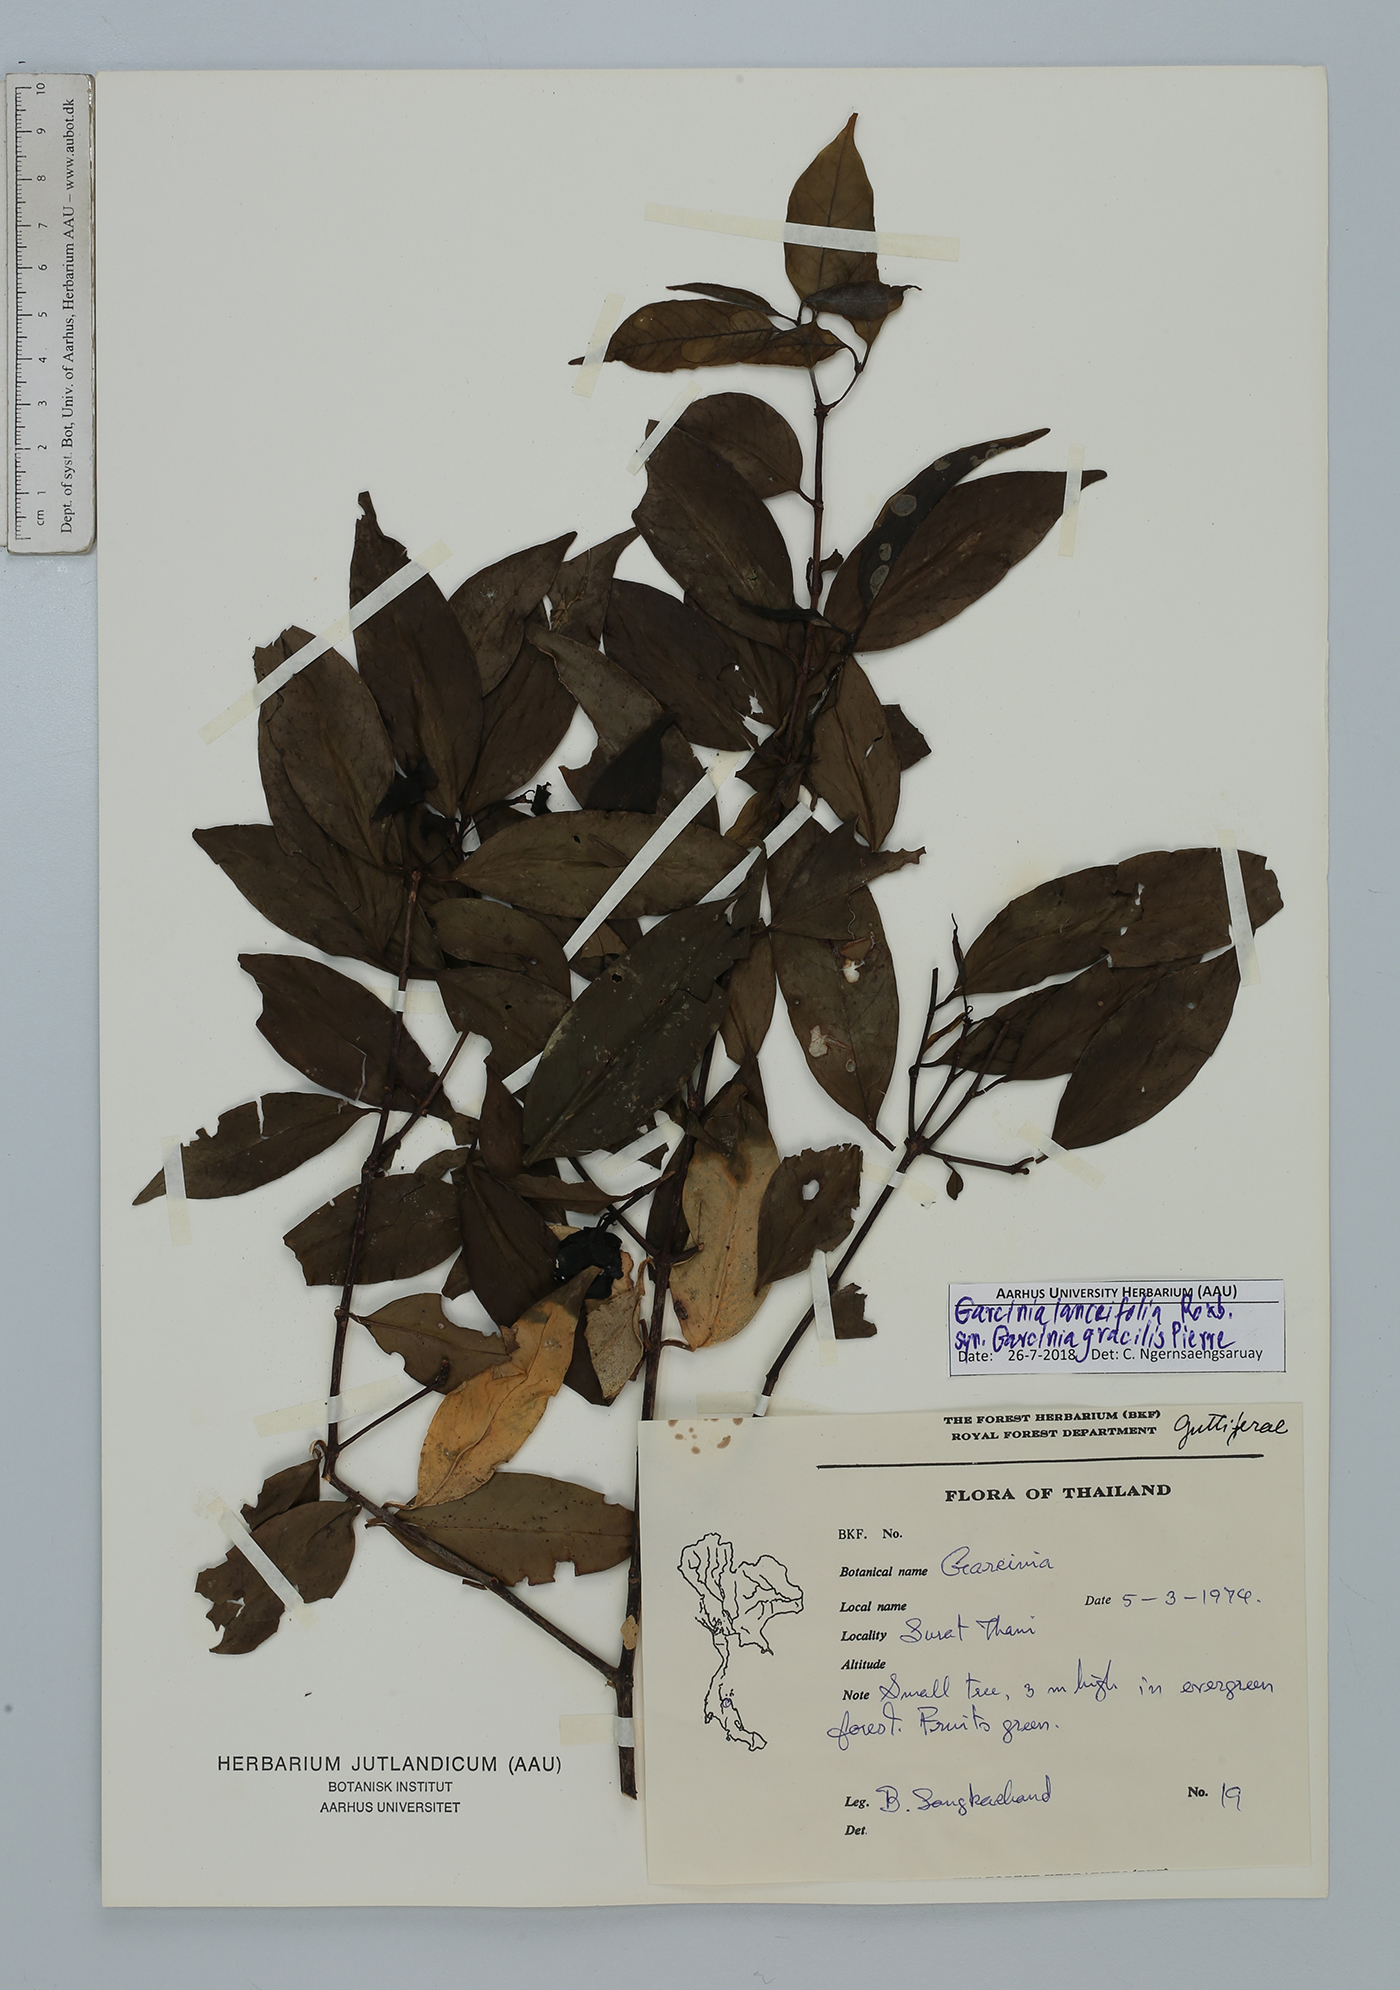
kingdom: Plantae
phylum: Tracheophyta
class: Magnoliopsida
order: Malpighiales
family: Clusiaceae
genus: Garcinia
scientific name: Garcinia lanceifolia
